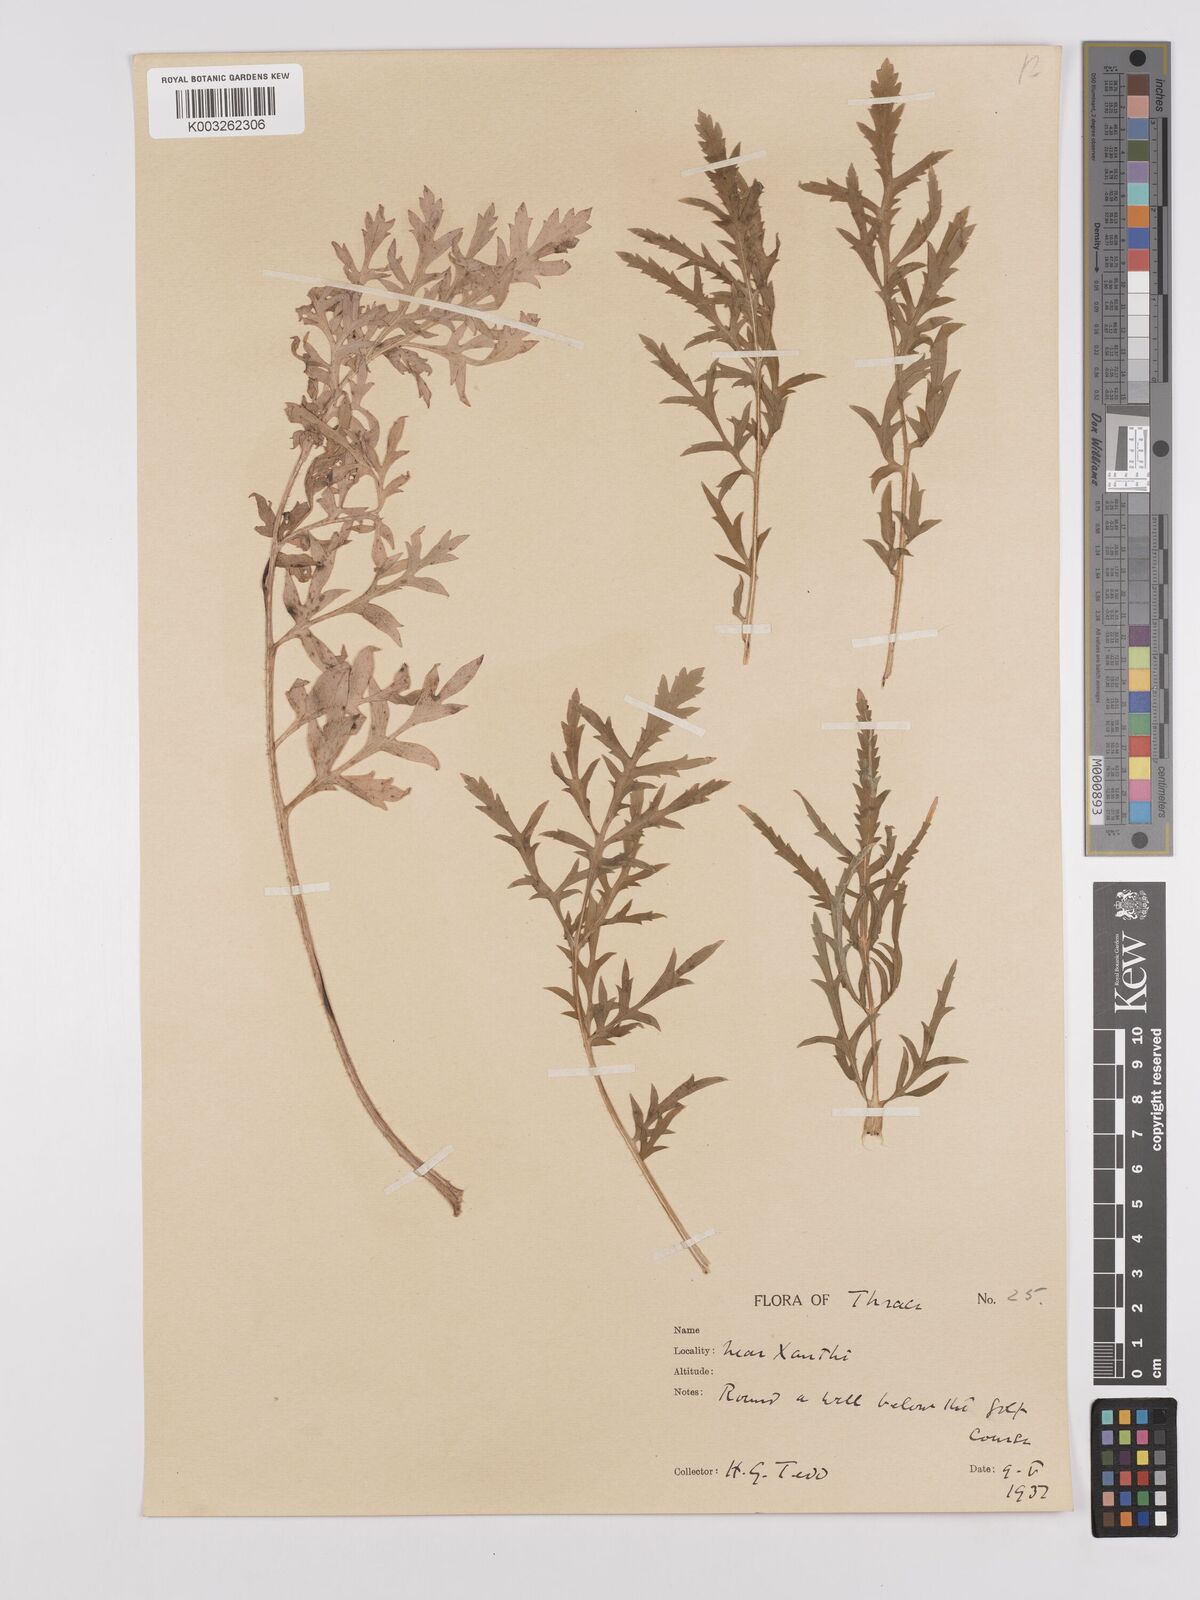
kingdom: Plantae
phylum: Tracheophyta
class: Magnoliopsida
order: Ranunculales
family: Papaveraceae
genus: Papaver
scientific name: Papaver rhoeas
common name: Corn poppy
